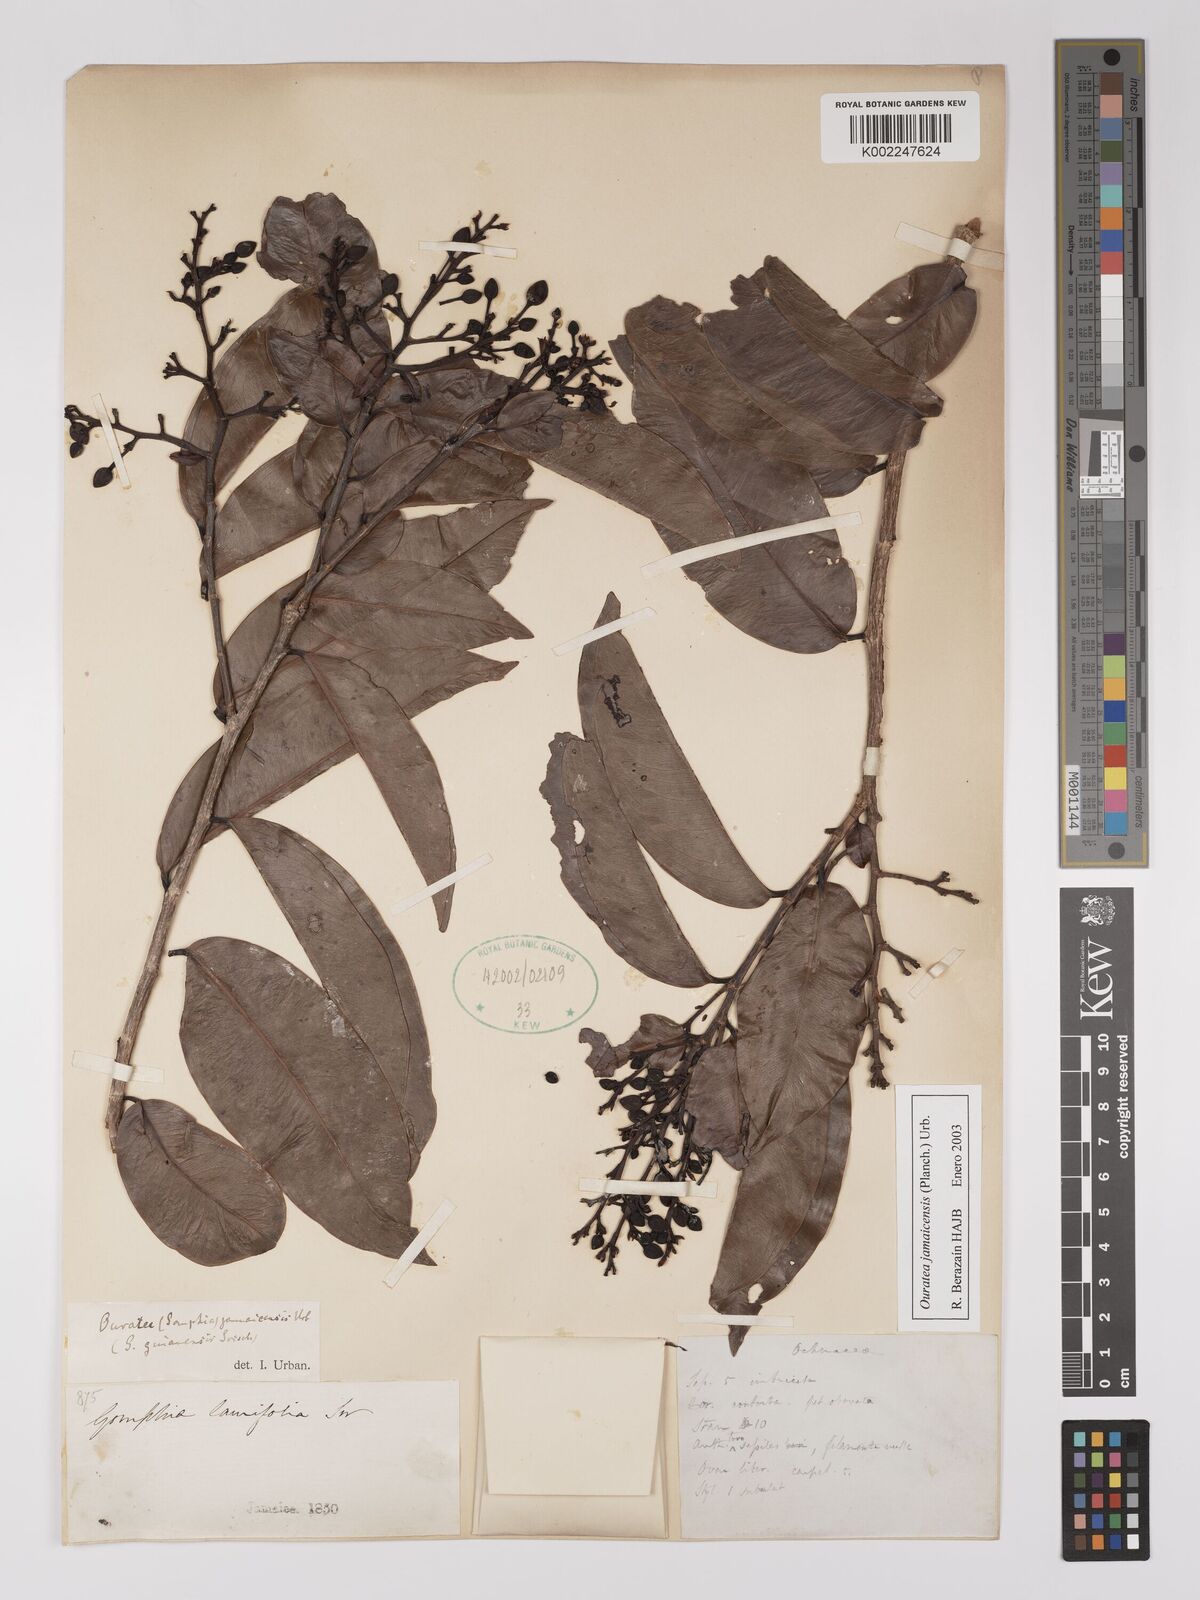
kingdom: Plantae
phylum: Tracheophyta
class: Magnoliopsida
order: Malpighiales
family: Ochnaceae
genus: Ouratea
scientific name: Ouratea jamaicensis
